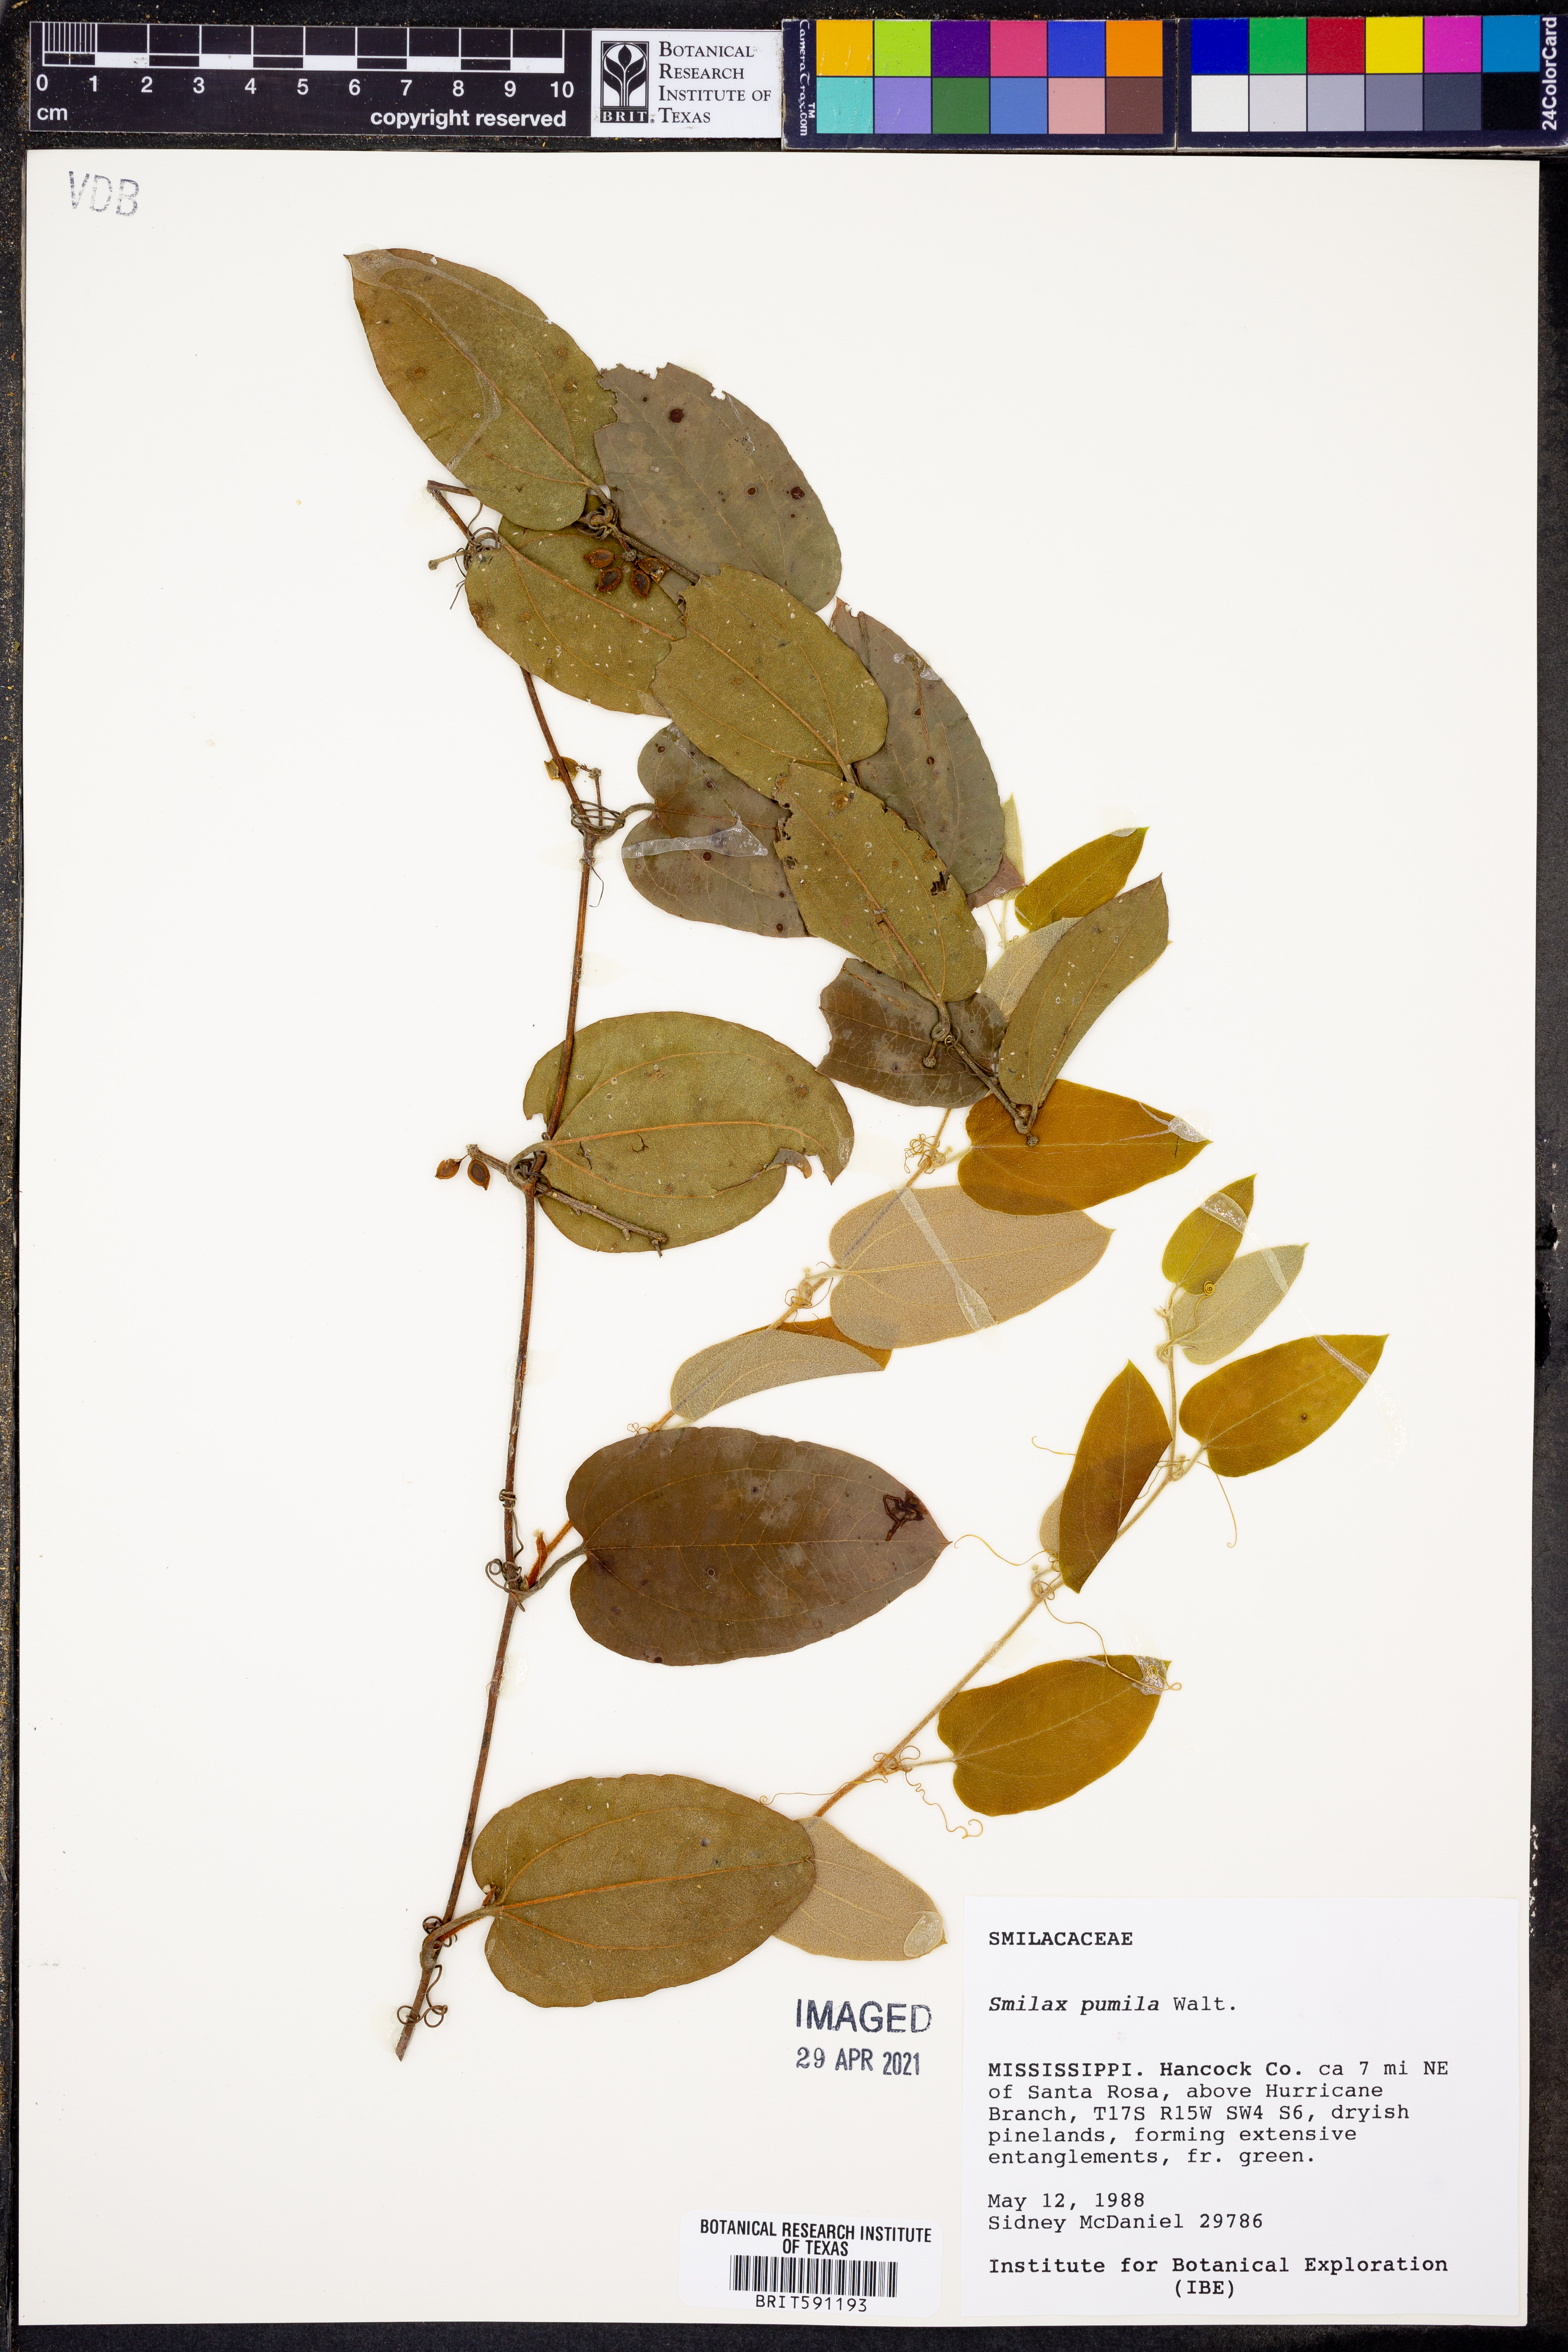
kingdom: Plantae
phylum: Tracheophyta
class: Liliopsida
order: Liliales
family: Smilacaceae
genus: Smilax
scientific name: Smilax pumila
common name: Sarsaparilla-vine
